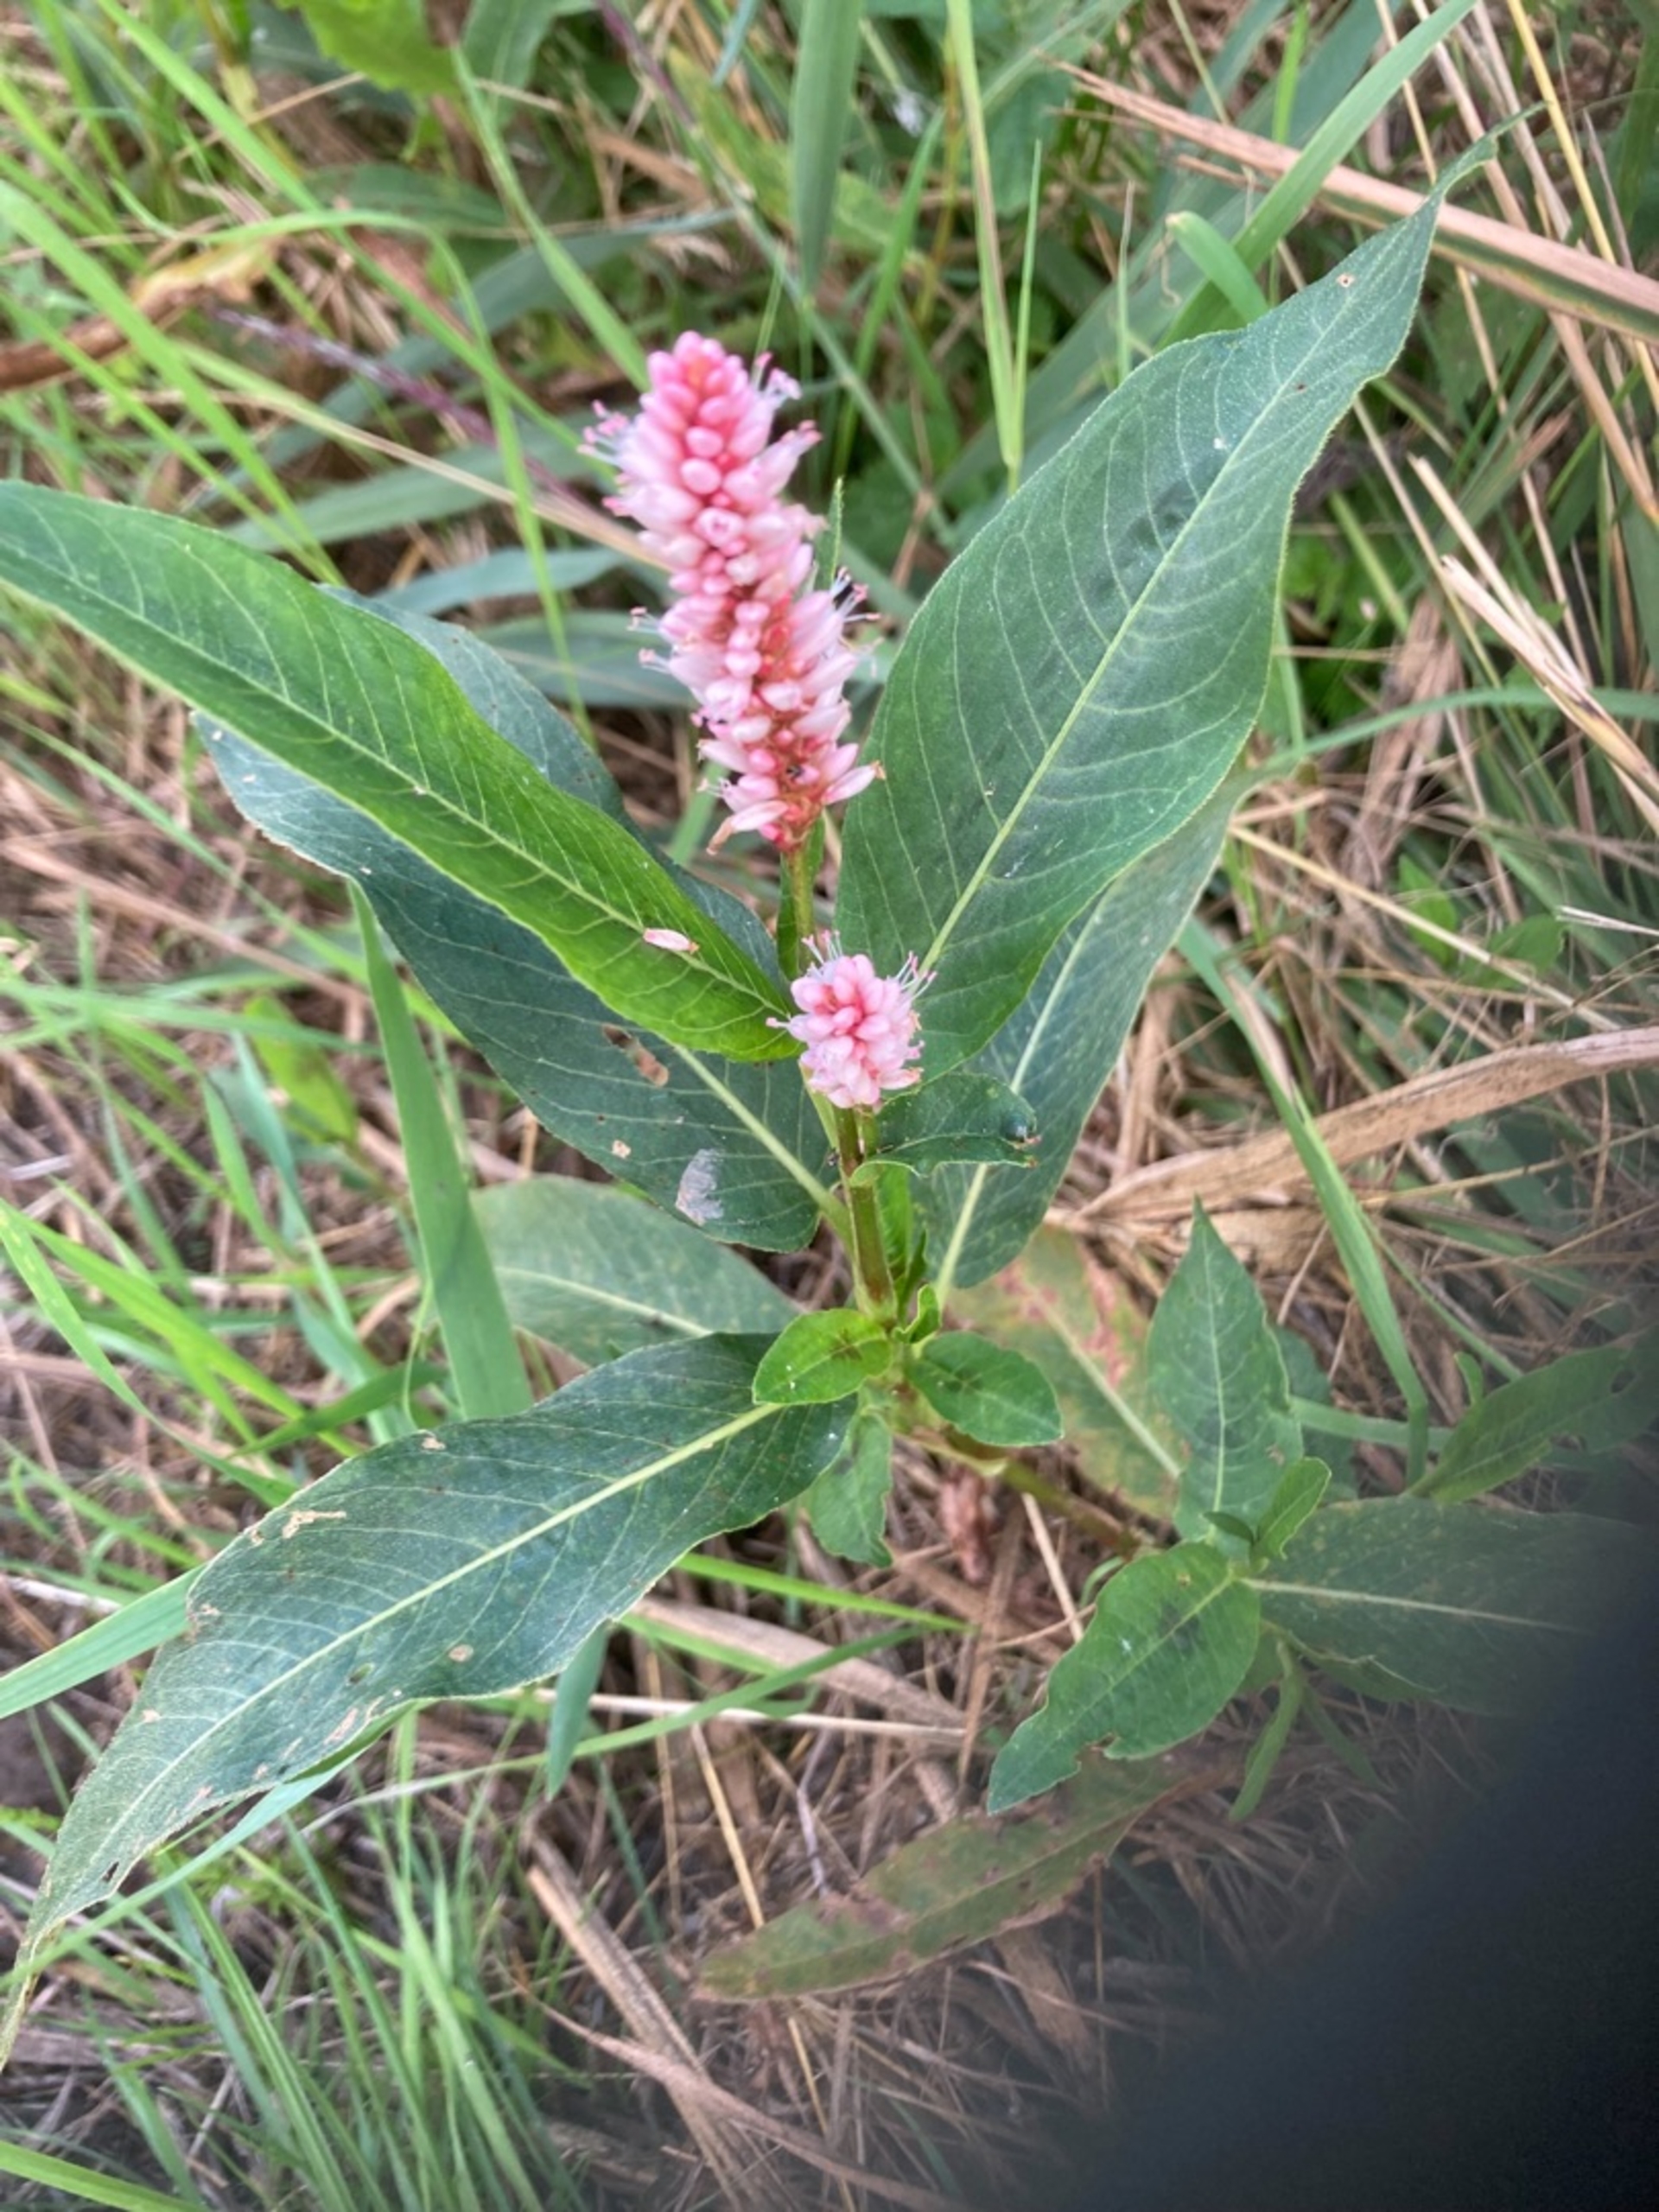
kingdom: Plantae
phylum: Tracheophyta
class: Magnoliopsida
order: Caryophyllales
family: Polygonaceae
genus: Persicaria
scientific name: Persicaria amphibia
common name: Vand-pileurt
